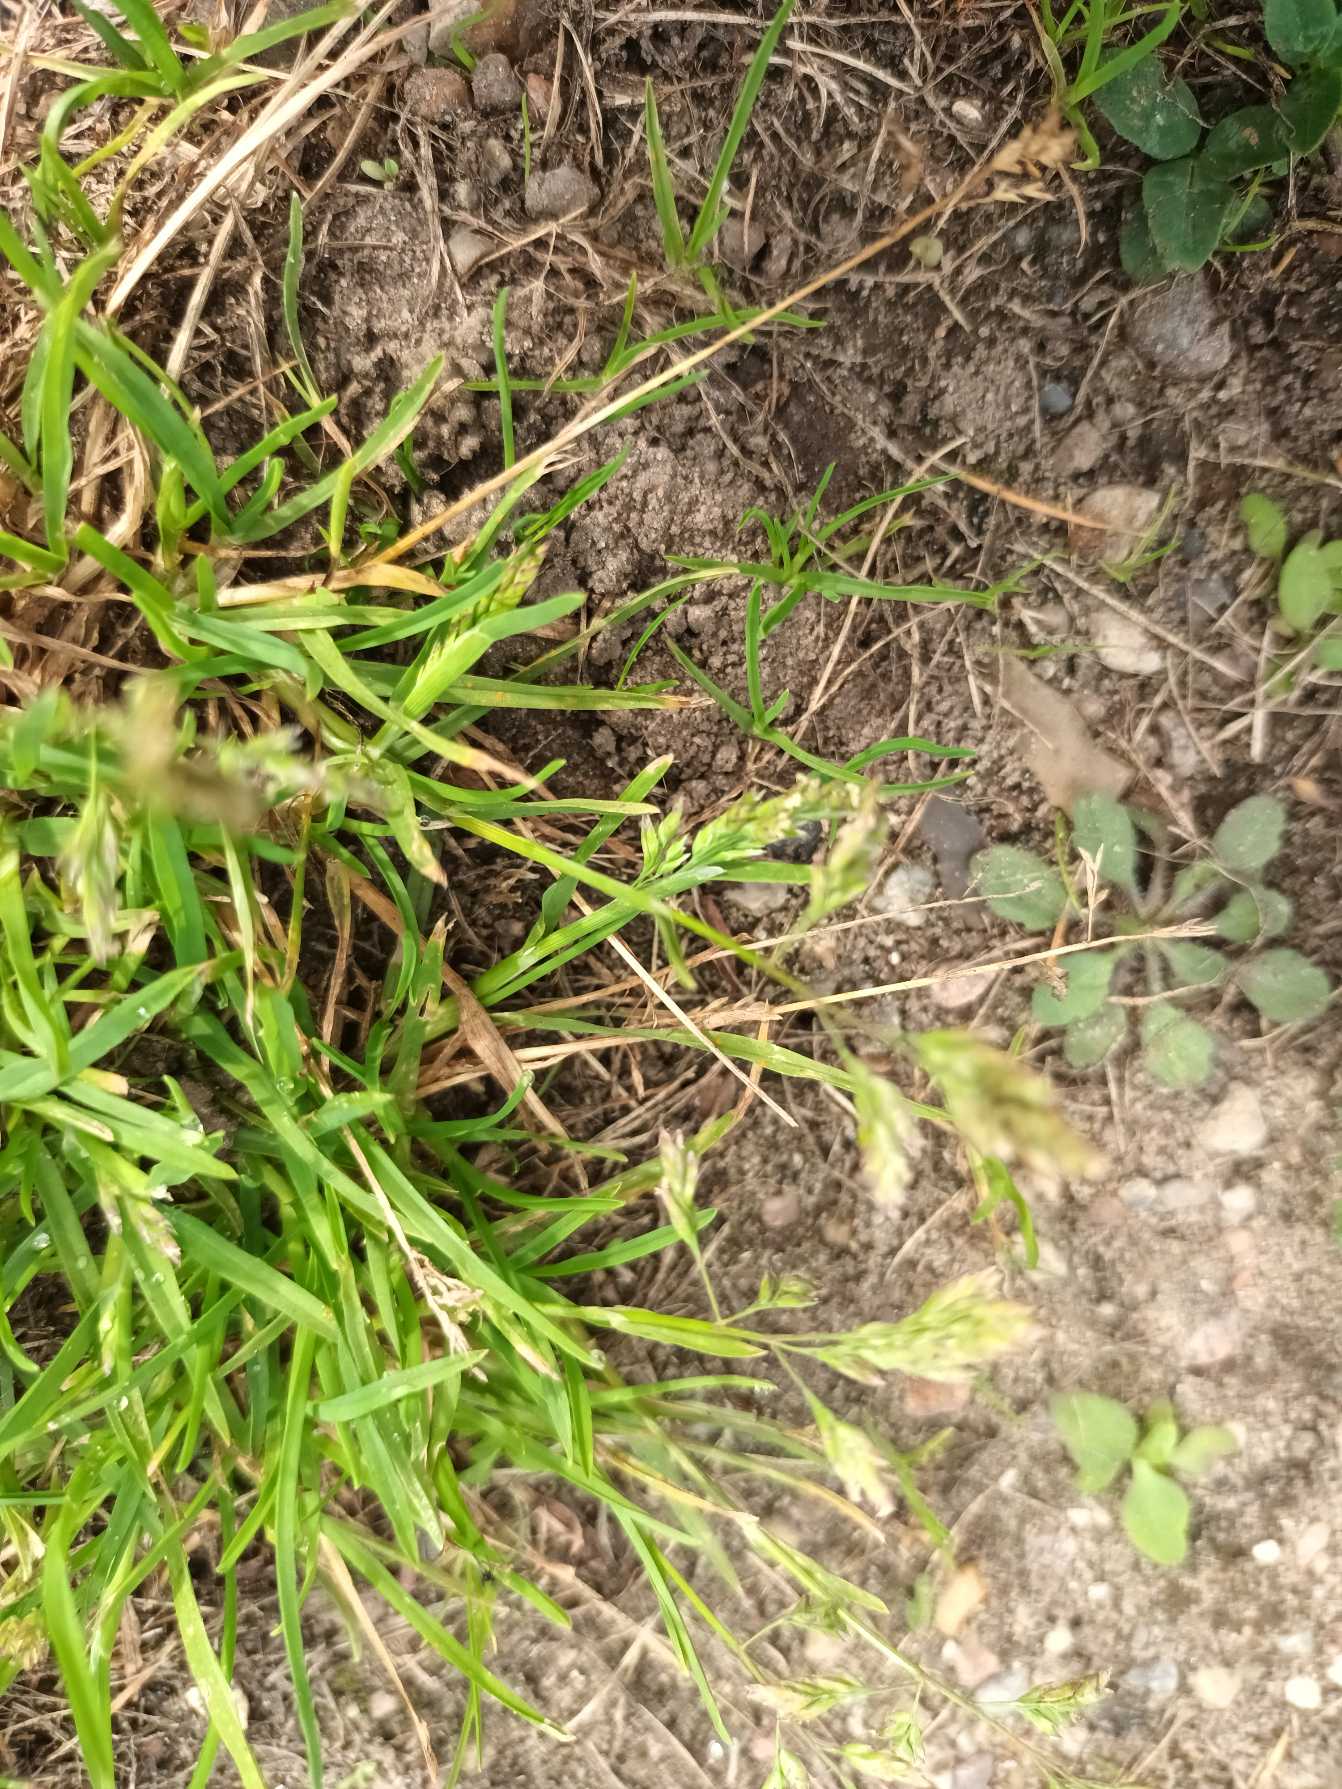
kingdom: Plantae
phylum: Tracheophyta
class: Liliopsida
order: Poales
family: Poaceae
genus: Poa
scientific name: Poa annua
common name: Enårig rapgræs
